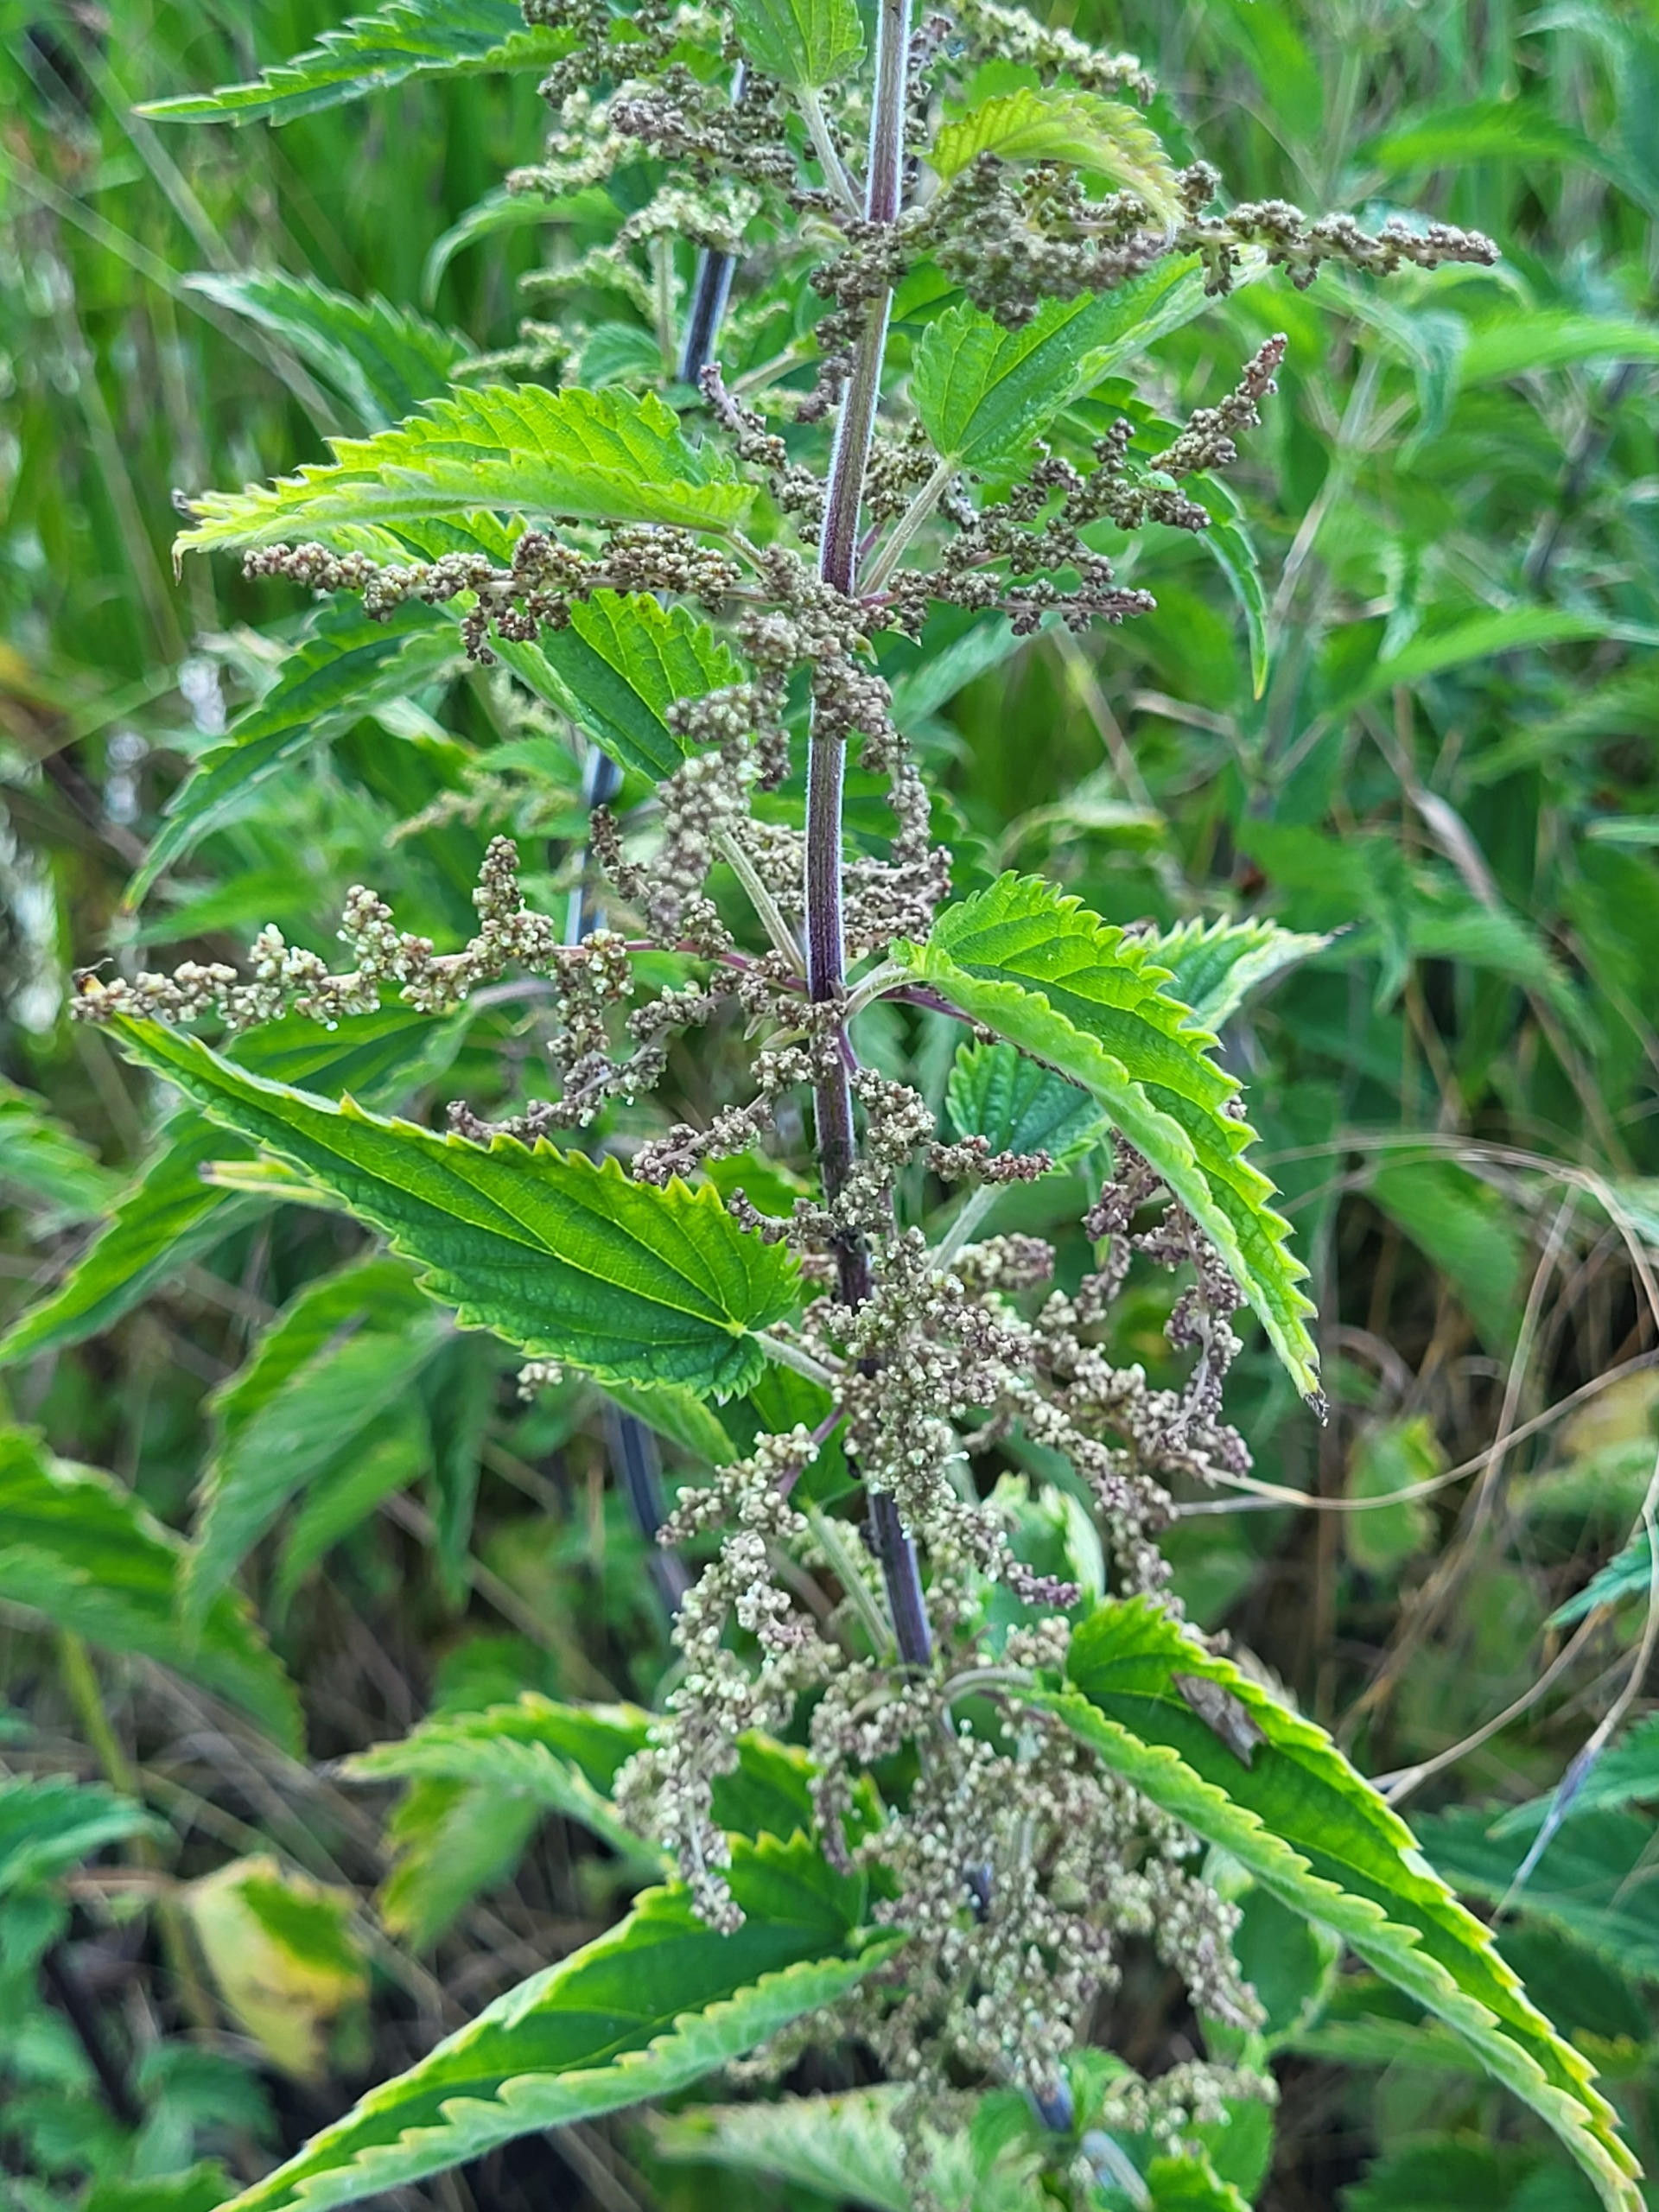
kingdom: Plantae
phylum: Tracheophyta
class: Magnoliopsida
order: Rosales
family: Urticaceae
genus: Urtica
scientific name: Urtica dioica
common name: Stor nælde
